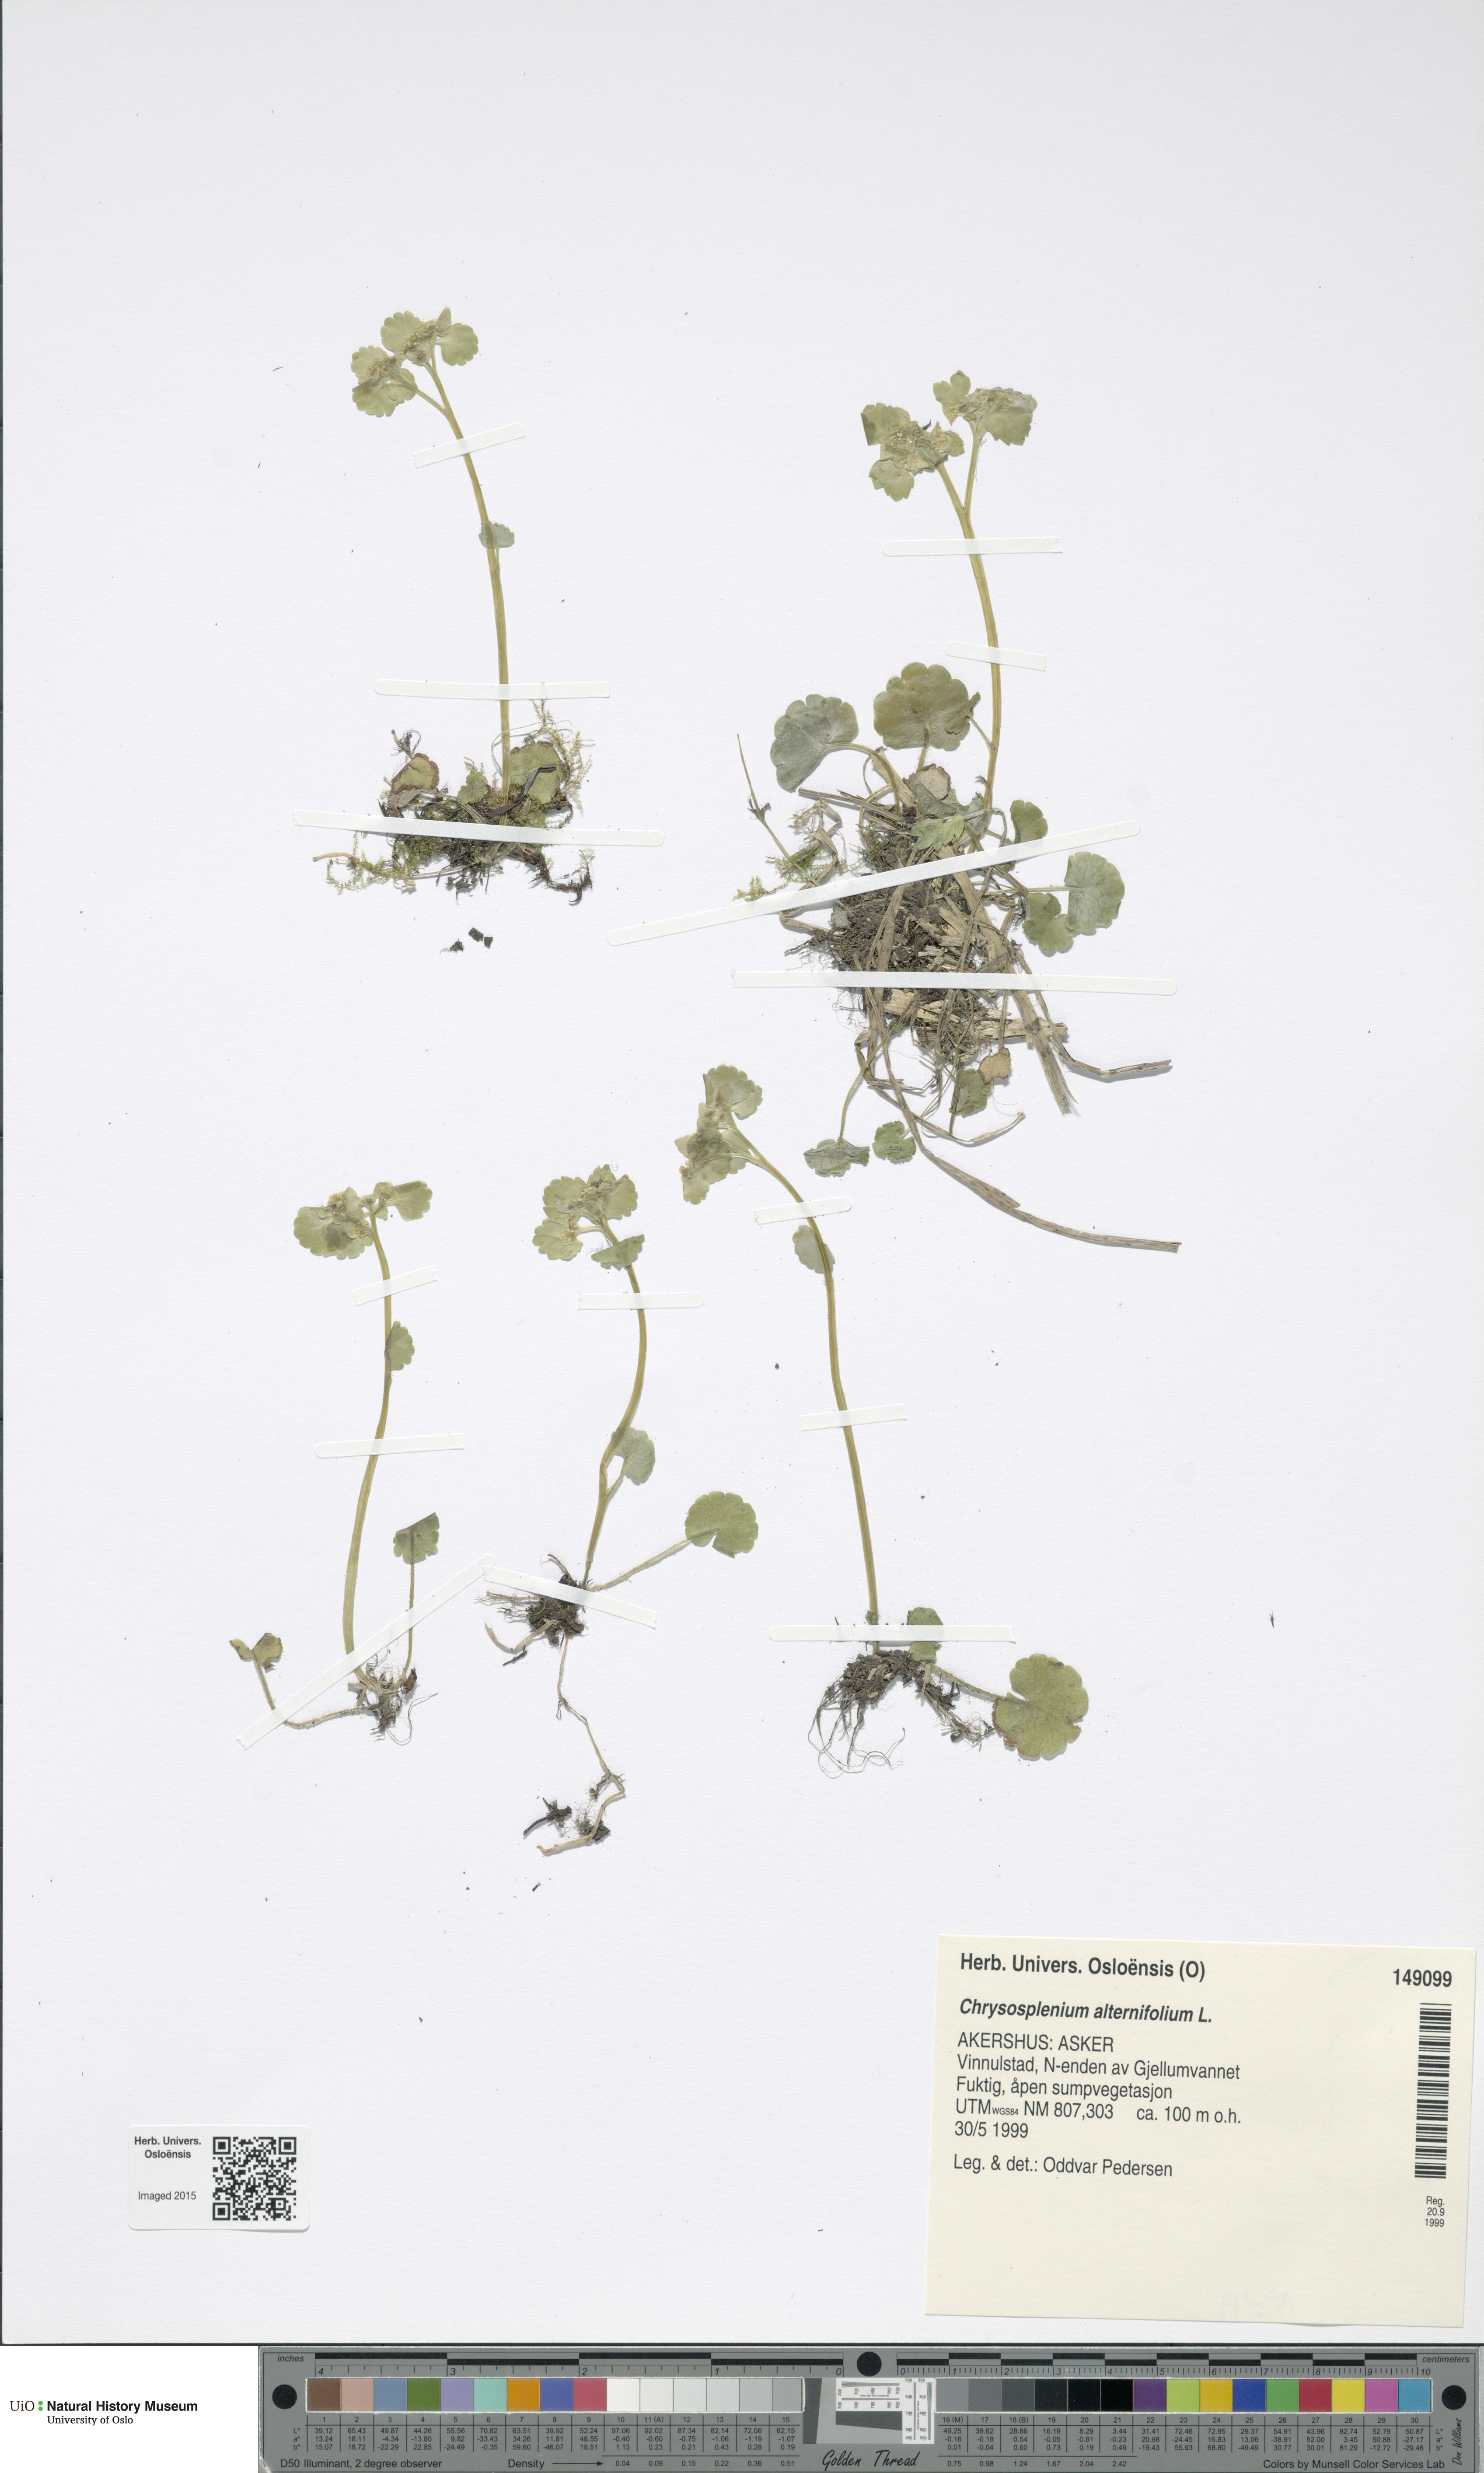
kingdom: Plantae
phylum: Tracheophyta
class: Magnoliopsida
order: Saxifragales
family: Saxifragaceae
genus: Chrysosplenium
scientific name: Chrysosplenium alternifolium
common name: Alternate-leaved golden-saxifrage
